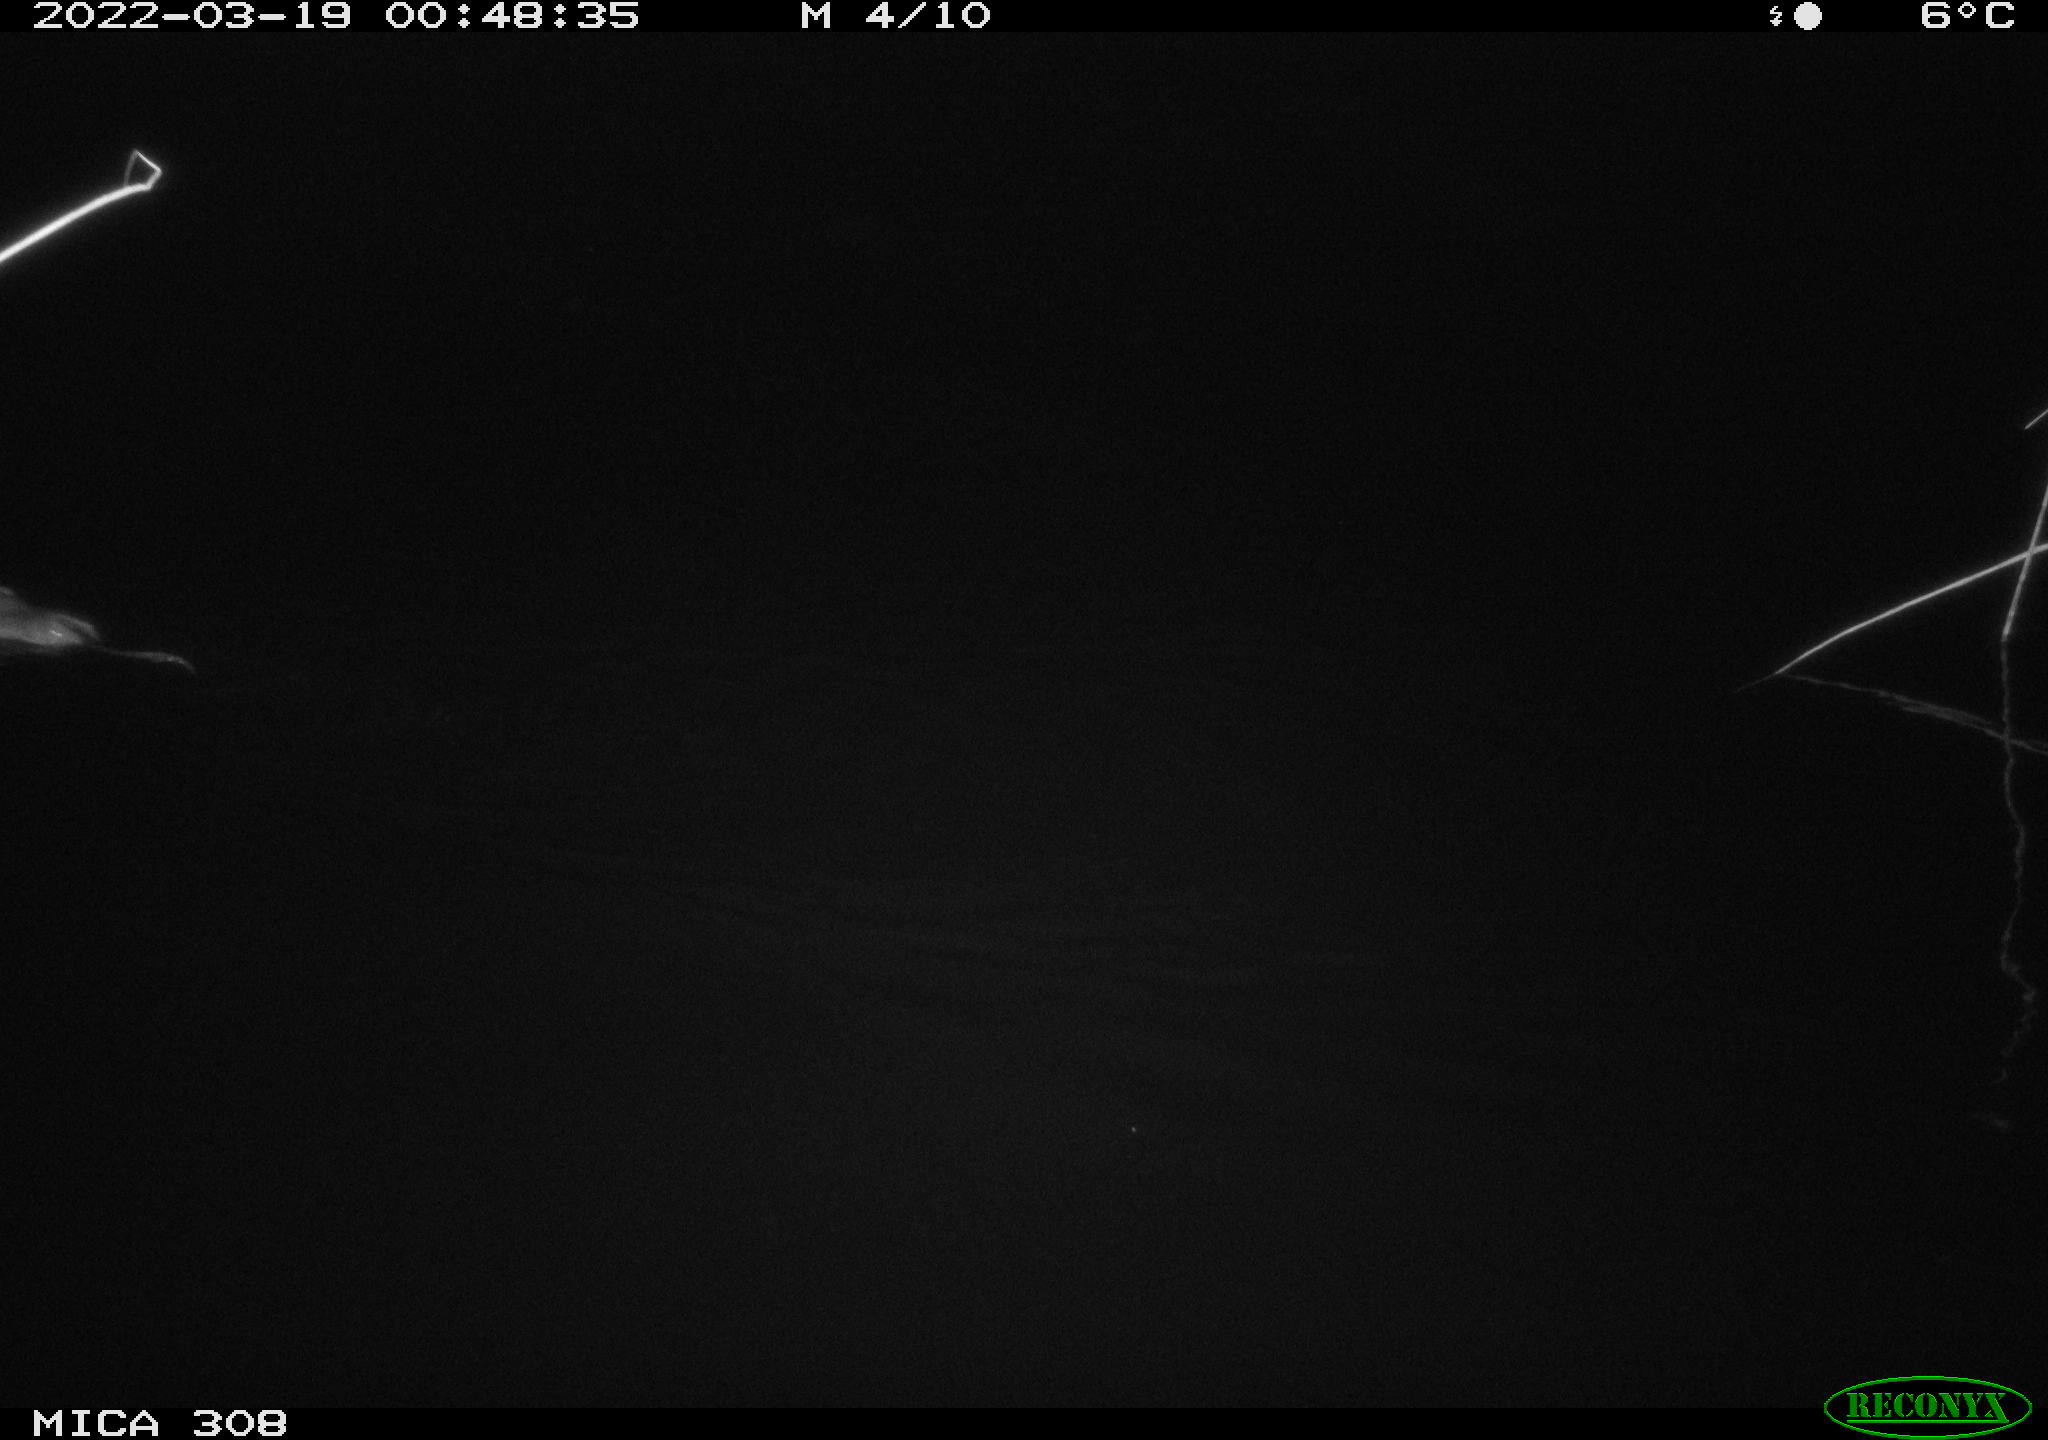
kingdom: Animalia
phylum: Chordata
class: Mammalia
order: Rodentia
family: Cricetidae
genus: Ondatra
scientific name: Ondatra zibethicus
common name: Muskrat
